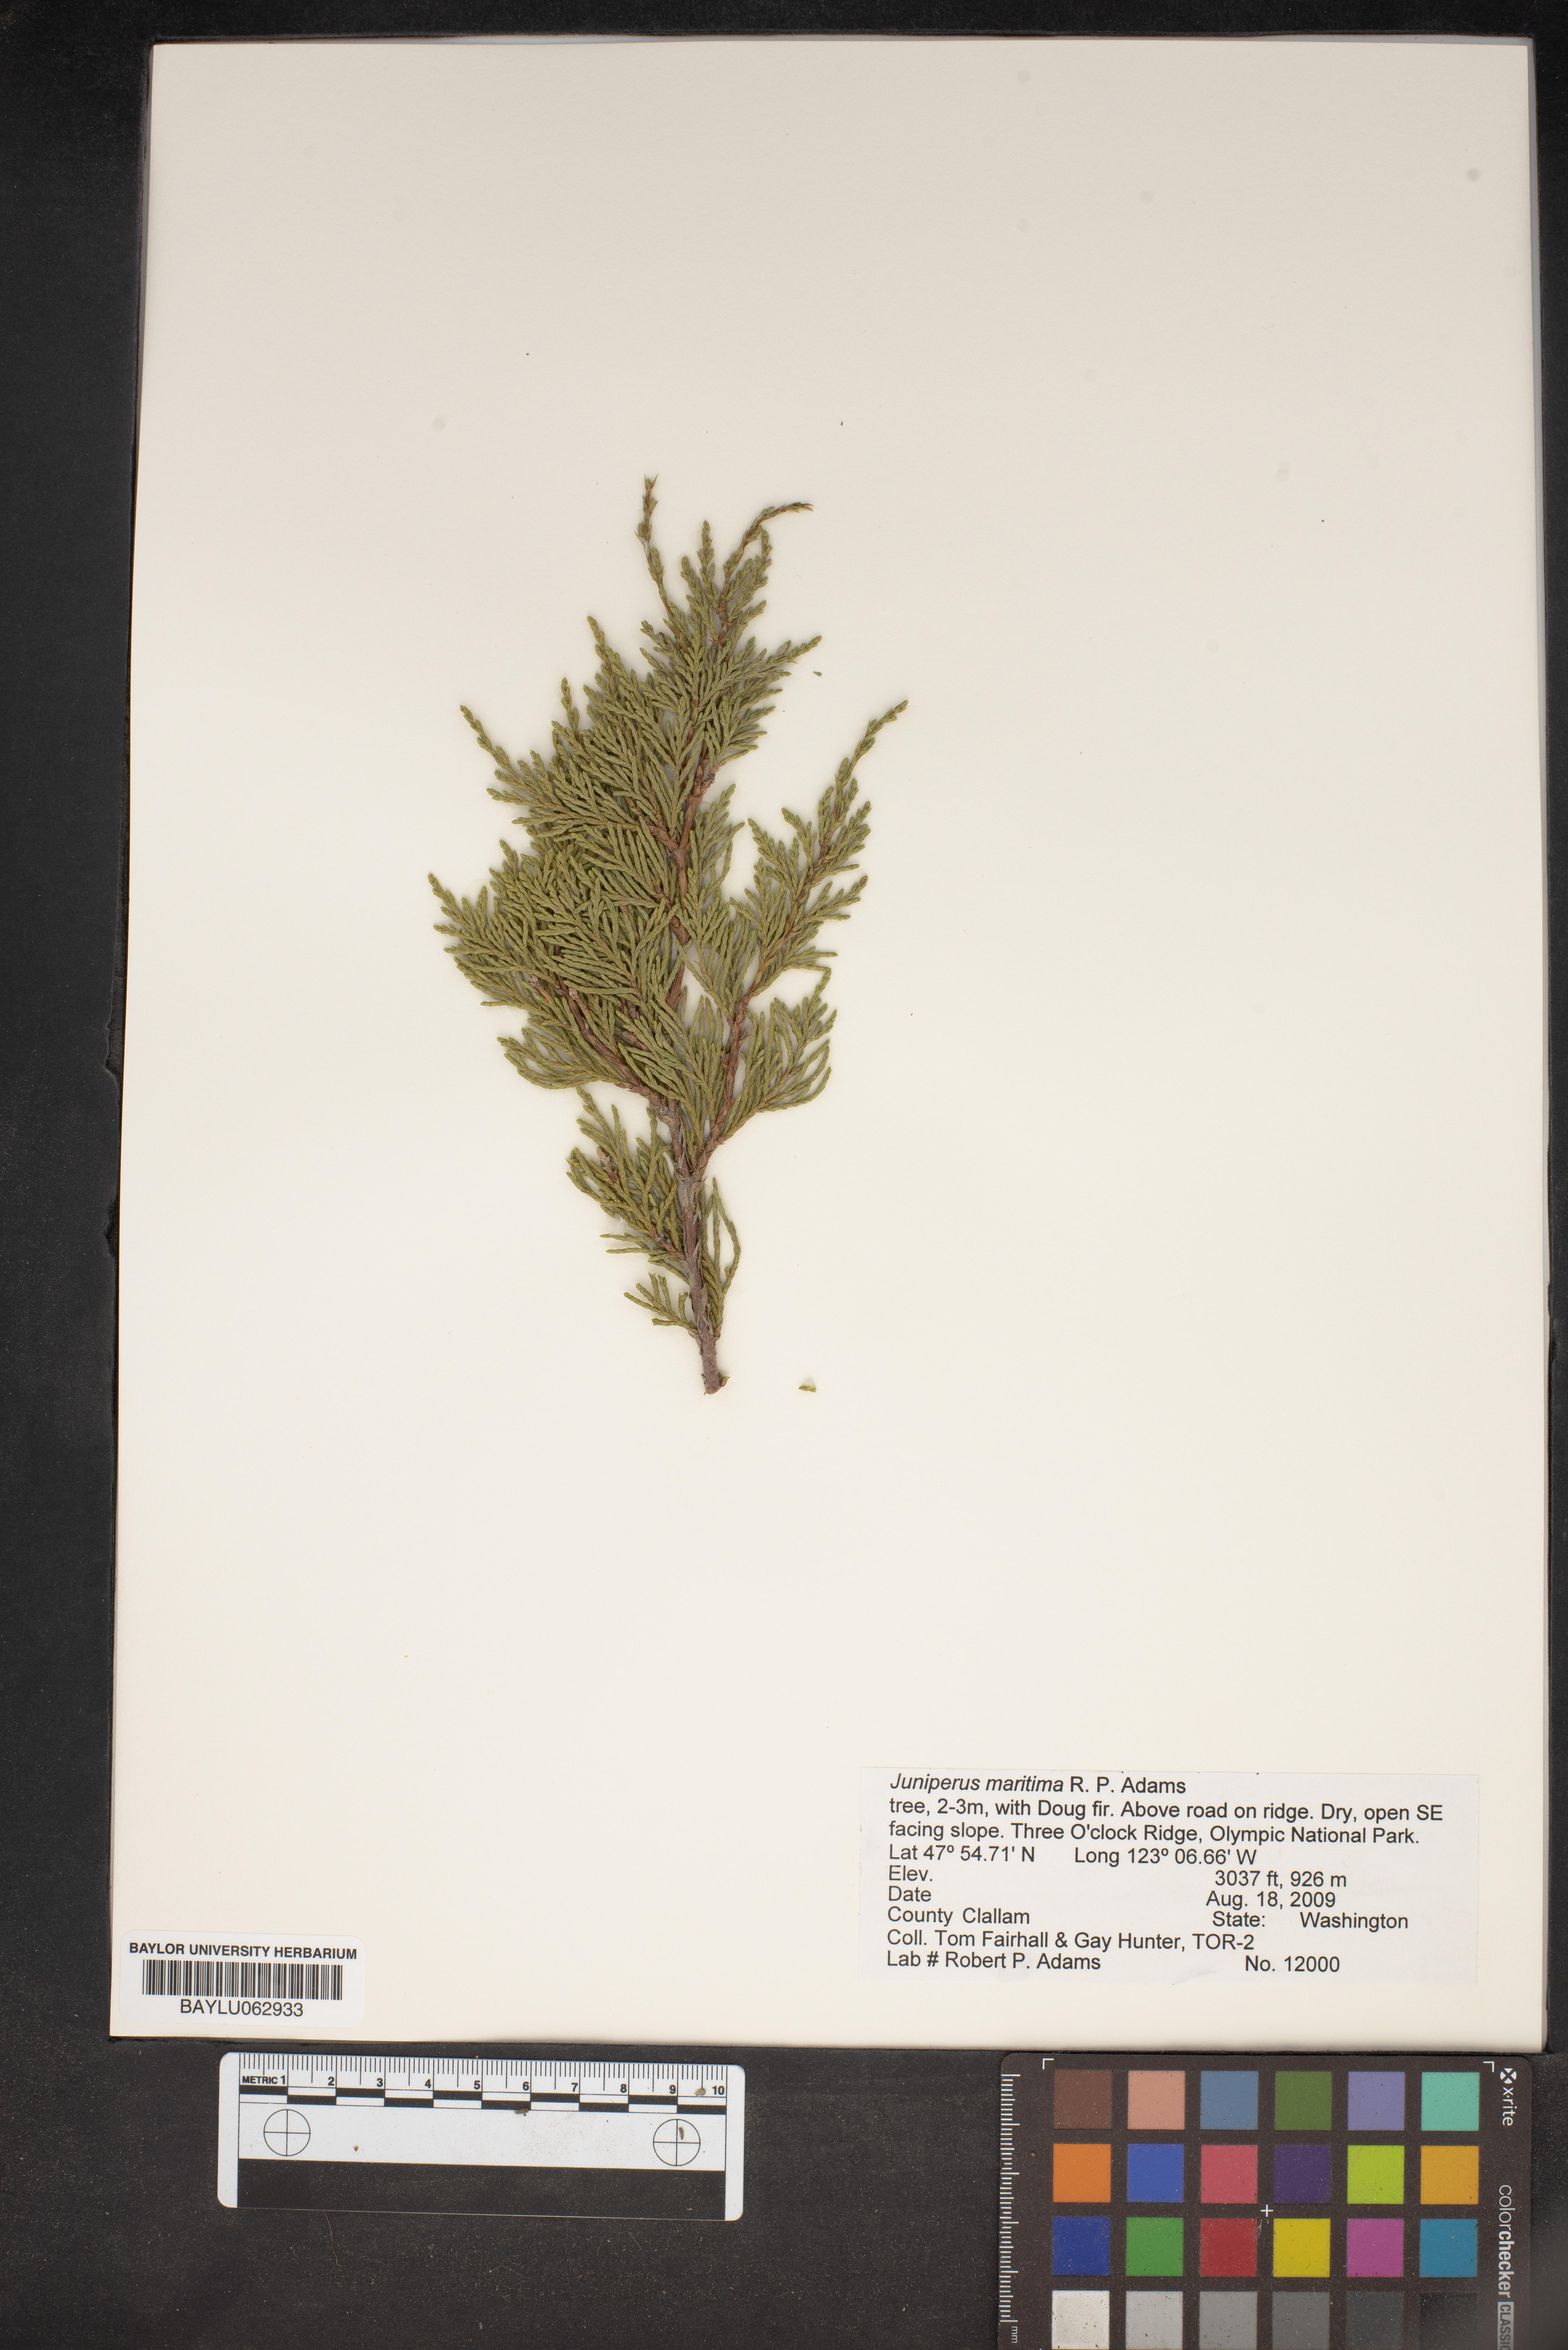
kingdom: Plantae
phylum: Tracheophyta
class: Pinopsida
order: Pinales
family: Cupressaceae
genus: Juniperus
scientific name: Juniperus scopulorum
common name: Rocky mountain juniper
